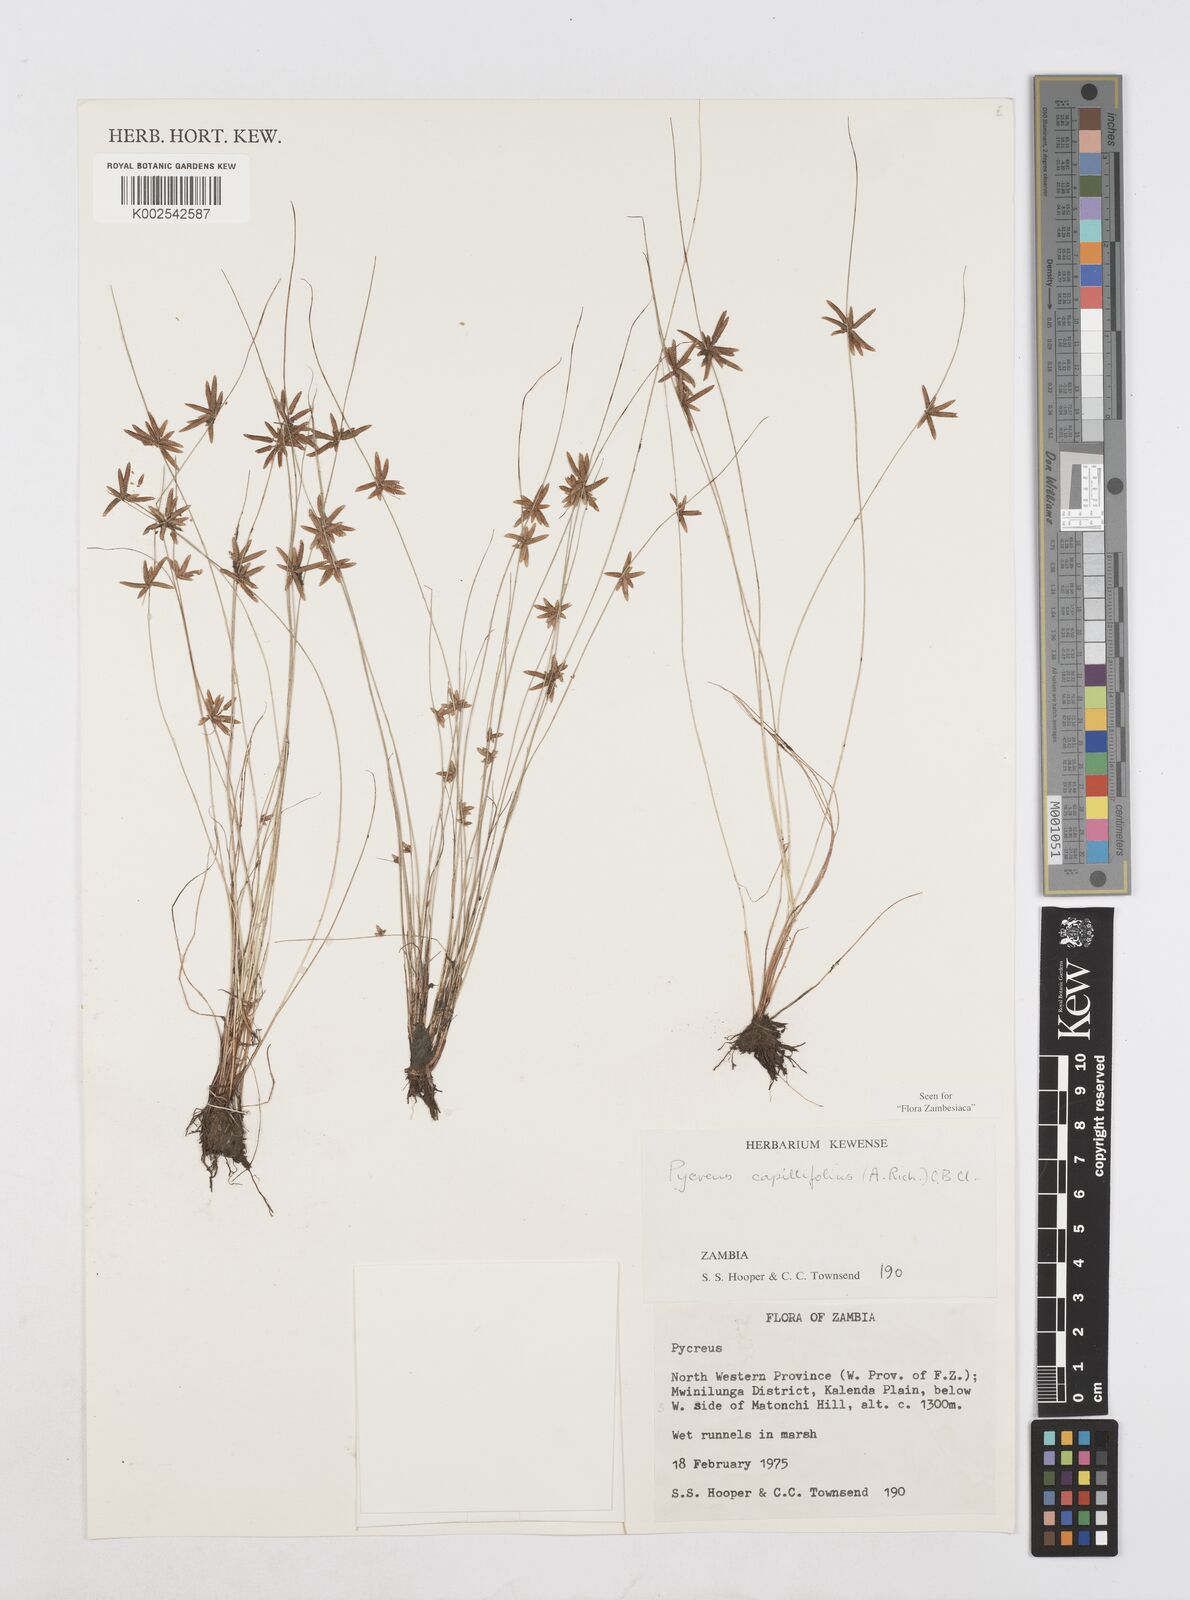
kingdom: Plantae
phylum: Tracheophyta
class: Liliopsida
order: Poales
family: Cyperaceae
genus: Cyperus
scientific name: Cyperus capillifolius
